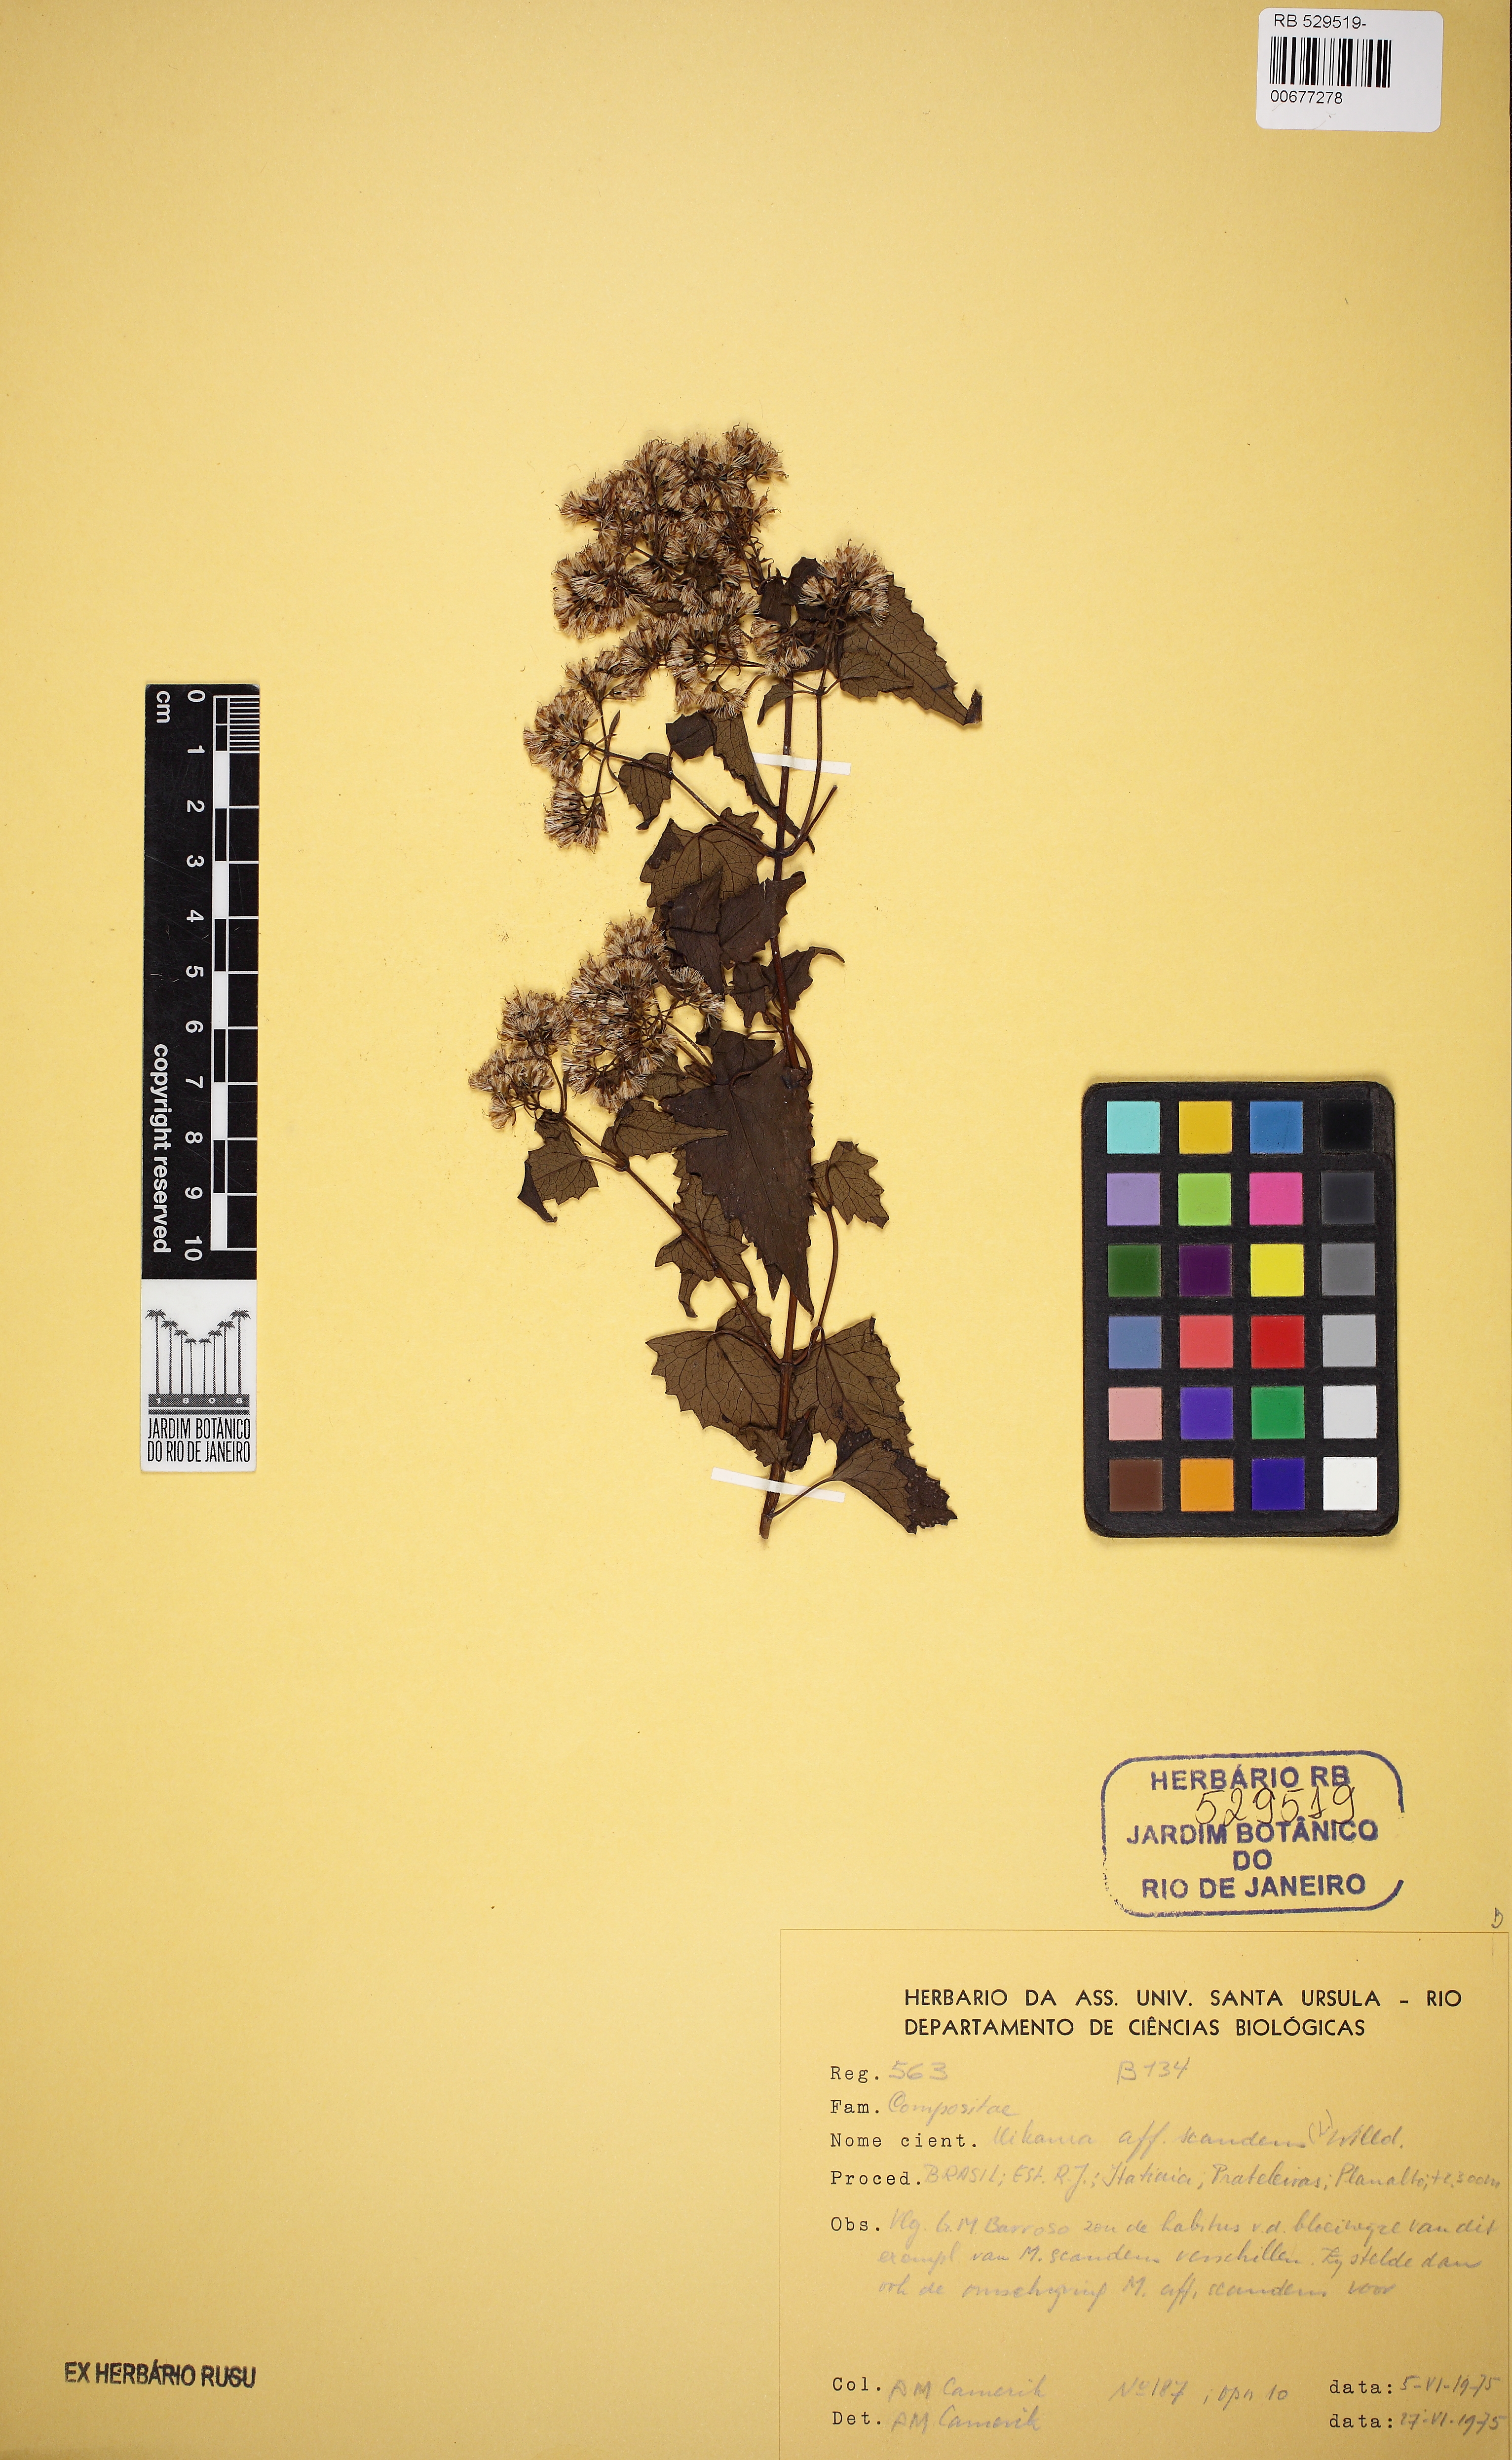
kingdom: Plantae
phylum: Tracheophyta
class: Magnoliopsida
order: Asterales
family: Asteraceae
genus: Mikania
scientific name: Mikania glaziovii
